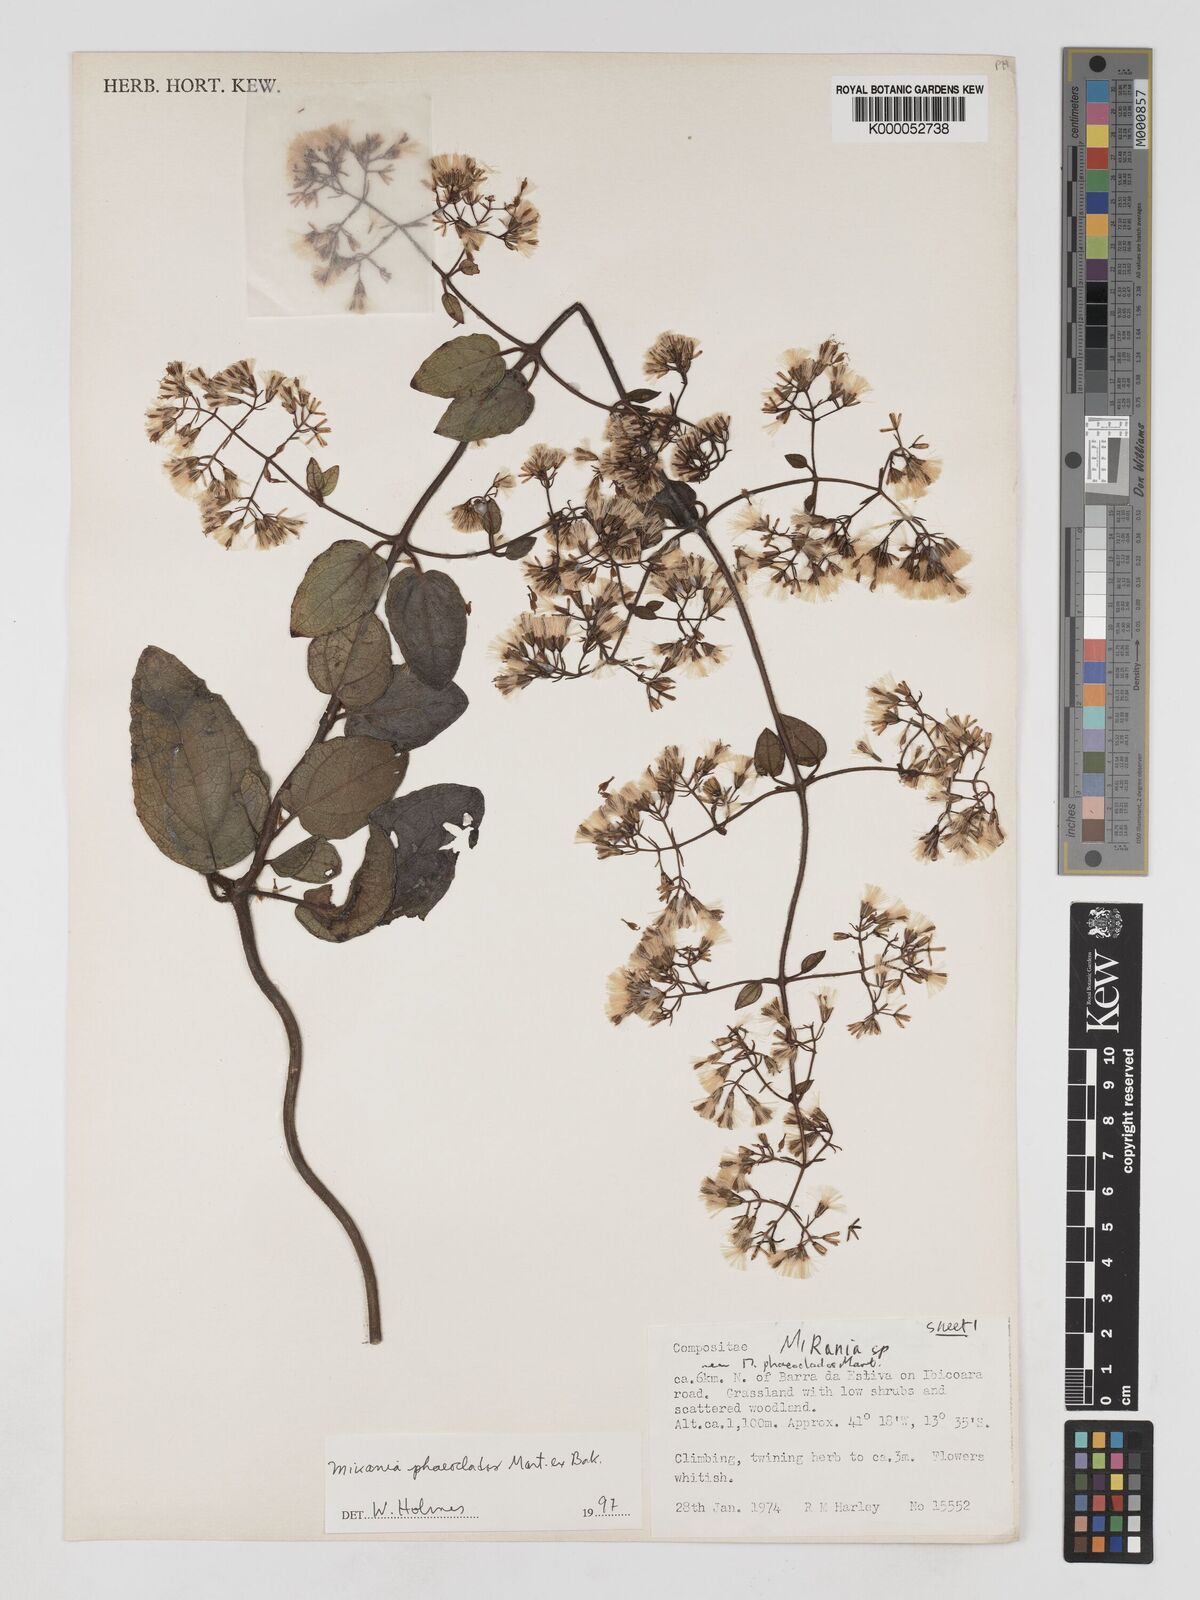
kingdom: Plantae
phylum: Tracheophyta
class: Magnoliopsida
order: Asterales
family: Asteraceae
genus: Mikania
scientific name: Mikania phaeoclados
